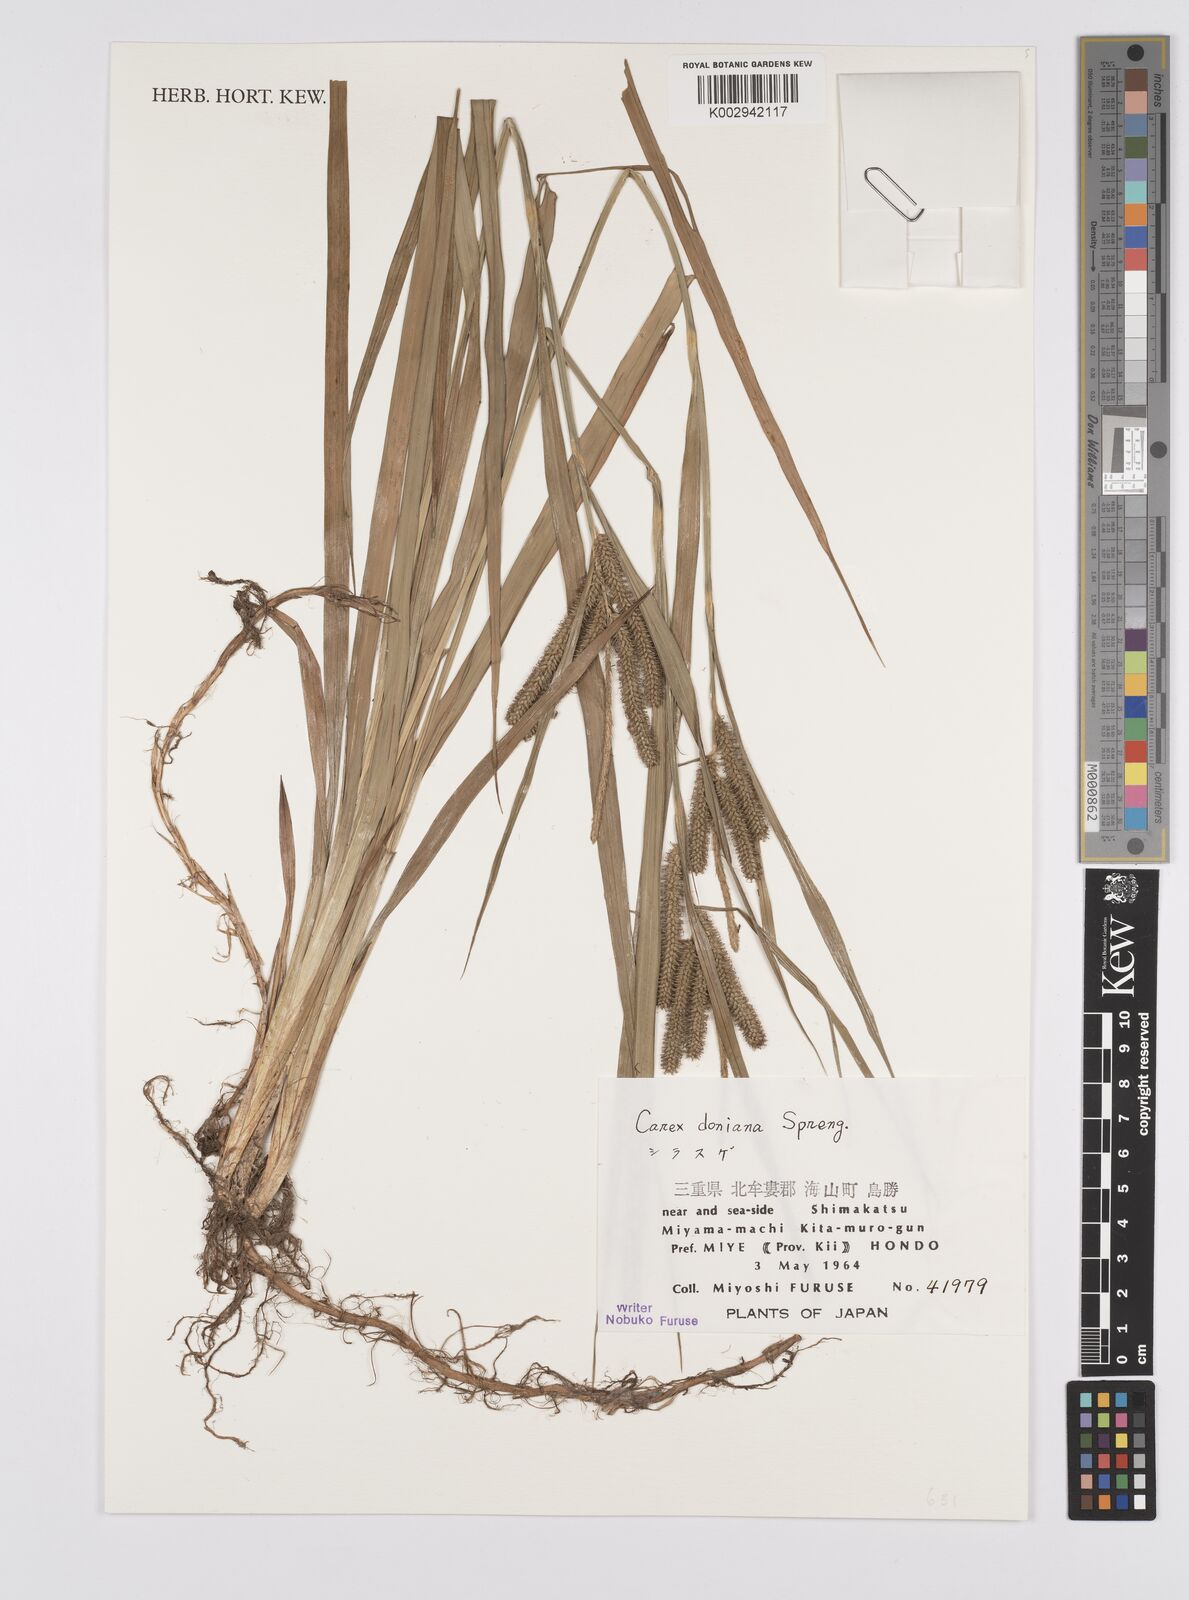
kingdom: Plantae
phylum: Tracheophyta
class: Liliopsida
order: Poales
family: Cyperaceae
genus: Carex
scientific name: Carex japonica
